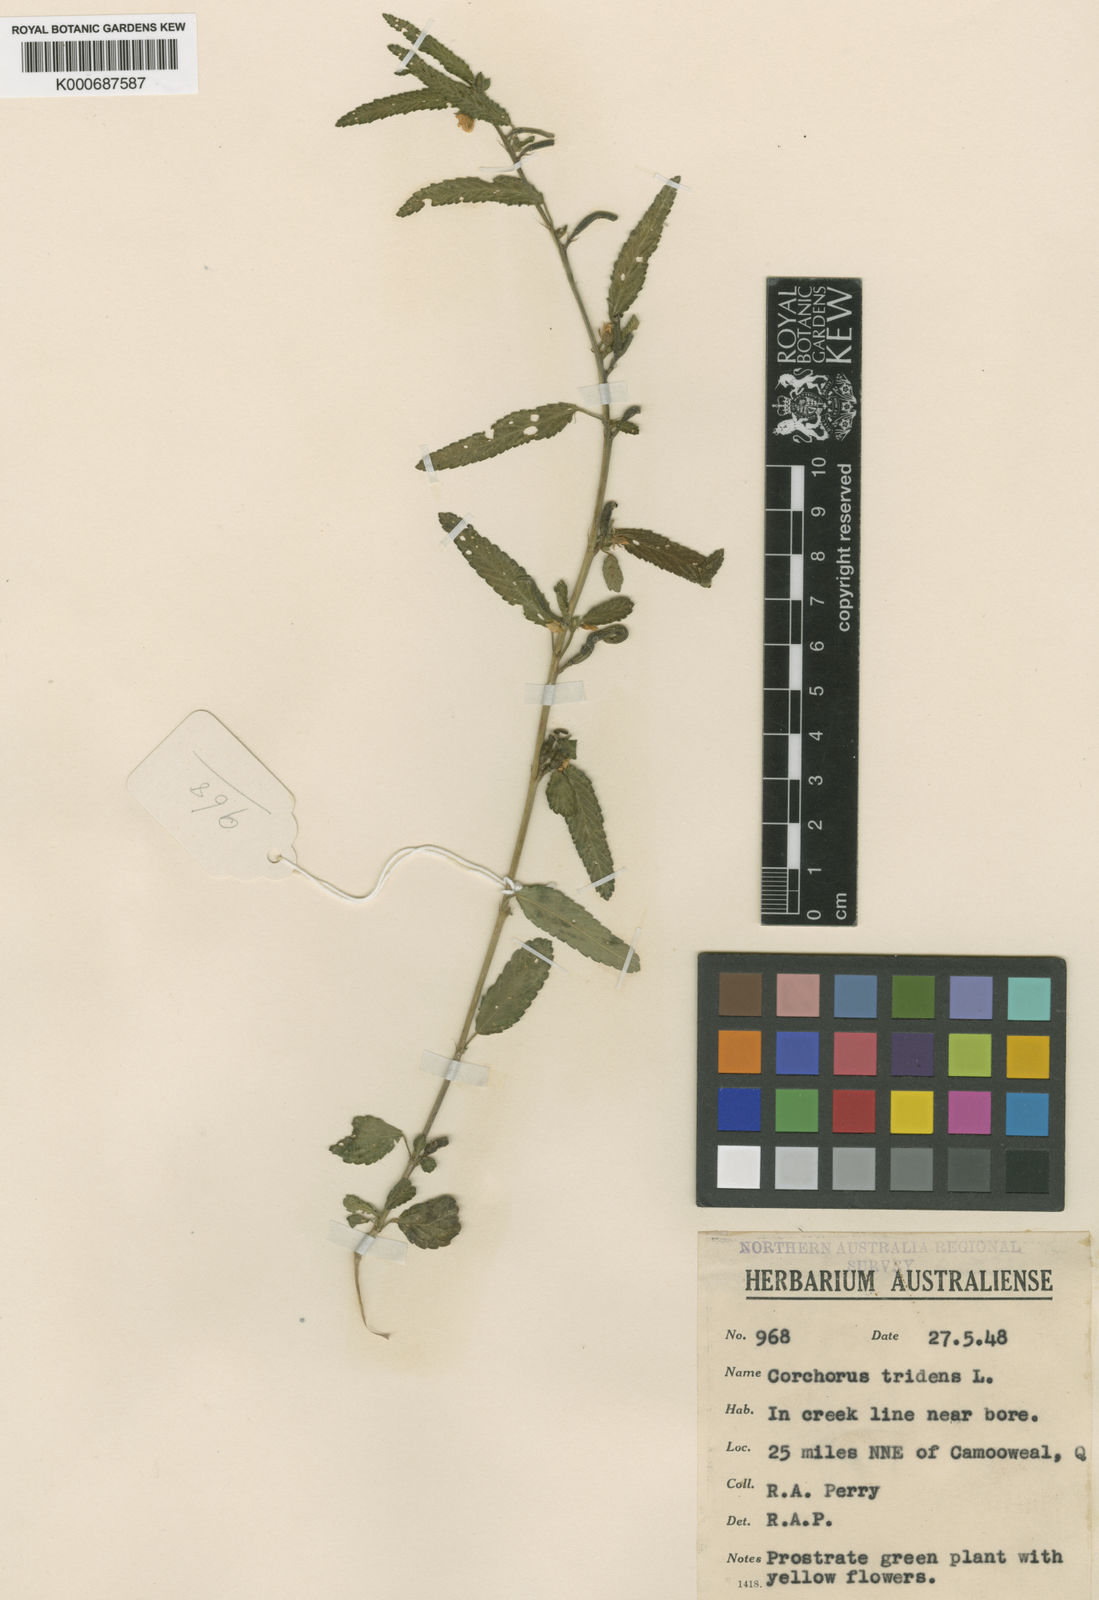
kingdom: Plantae
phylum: Tracheophyta
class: Magnoliopsida
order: Malvales
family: Malvaceae
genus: Corchorus
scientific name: Corchorus tridens
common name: Wild jute
